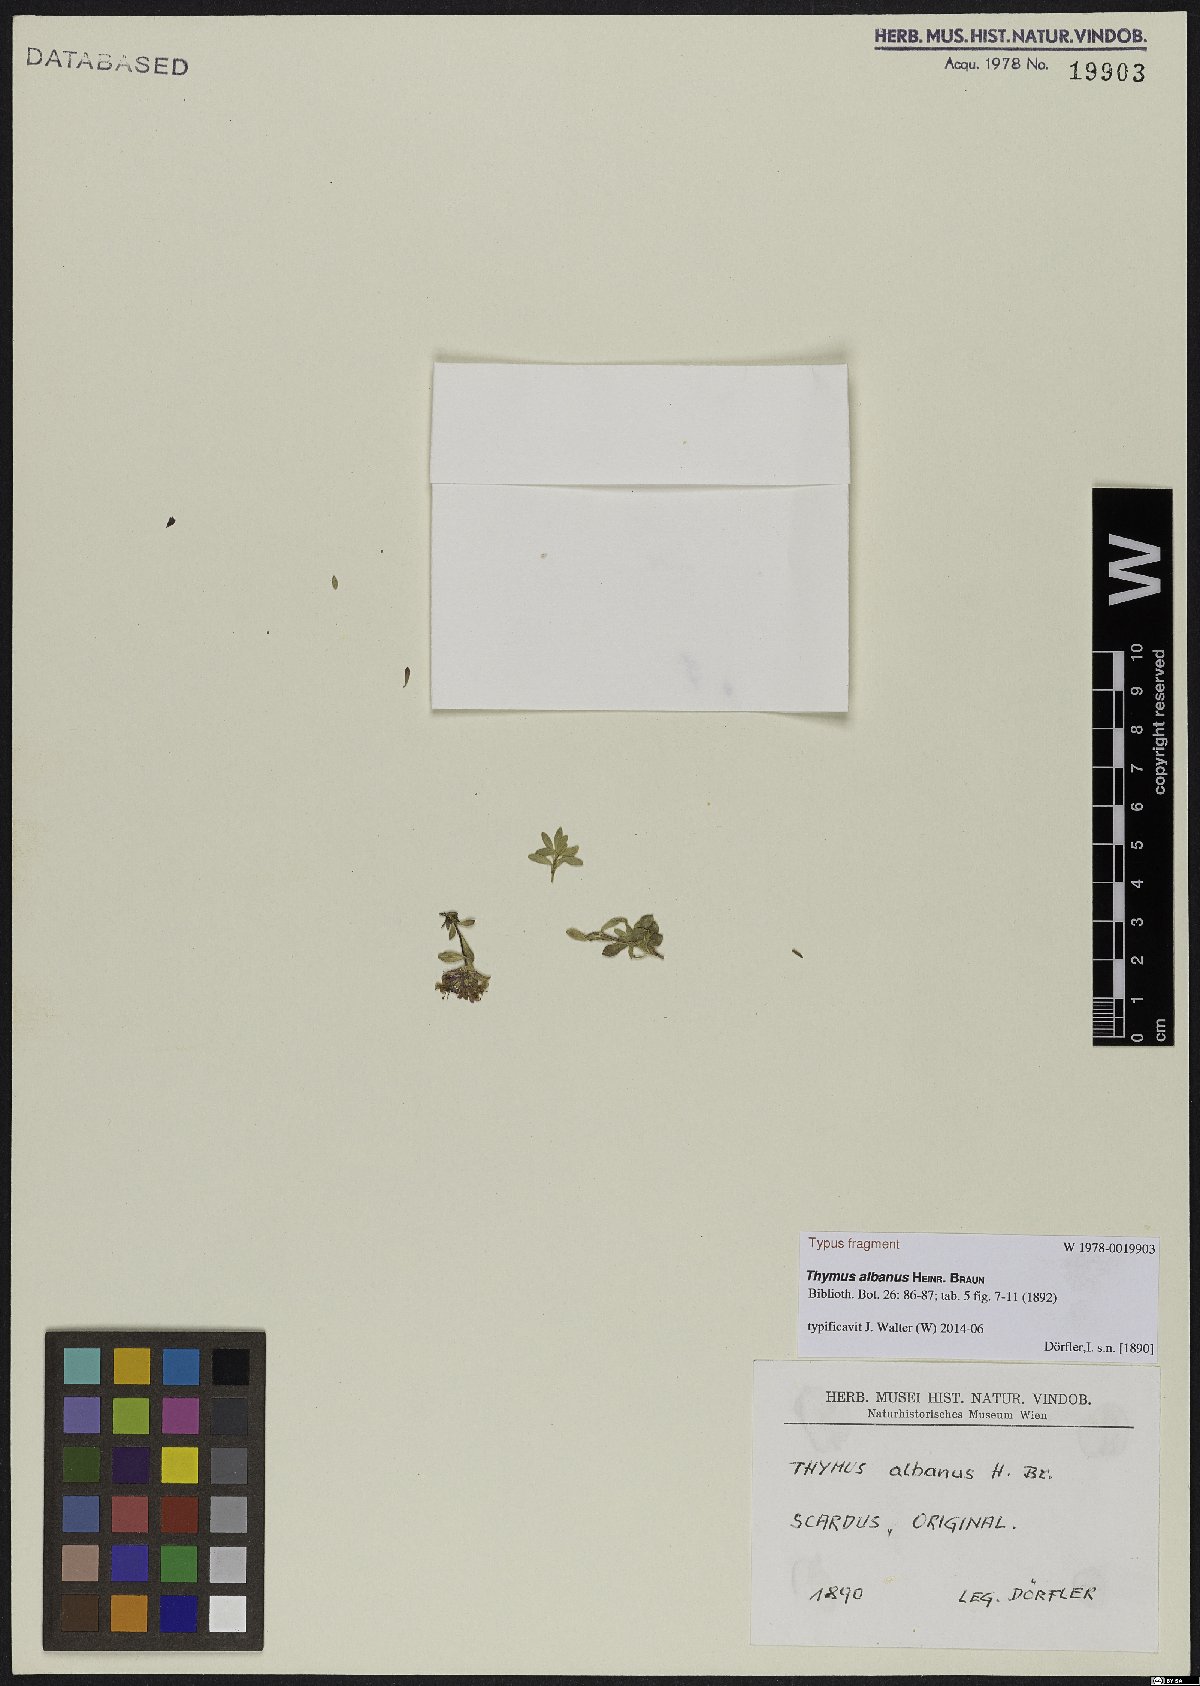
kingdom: Plantae
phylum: Tracheophyta
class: Magnoliopsida
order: Lamiales
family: Lamiaceae
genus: Thymus
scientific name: Thymus albanus
